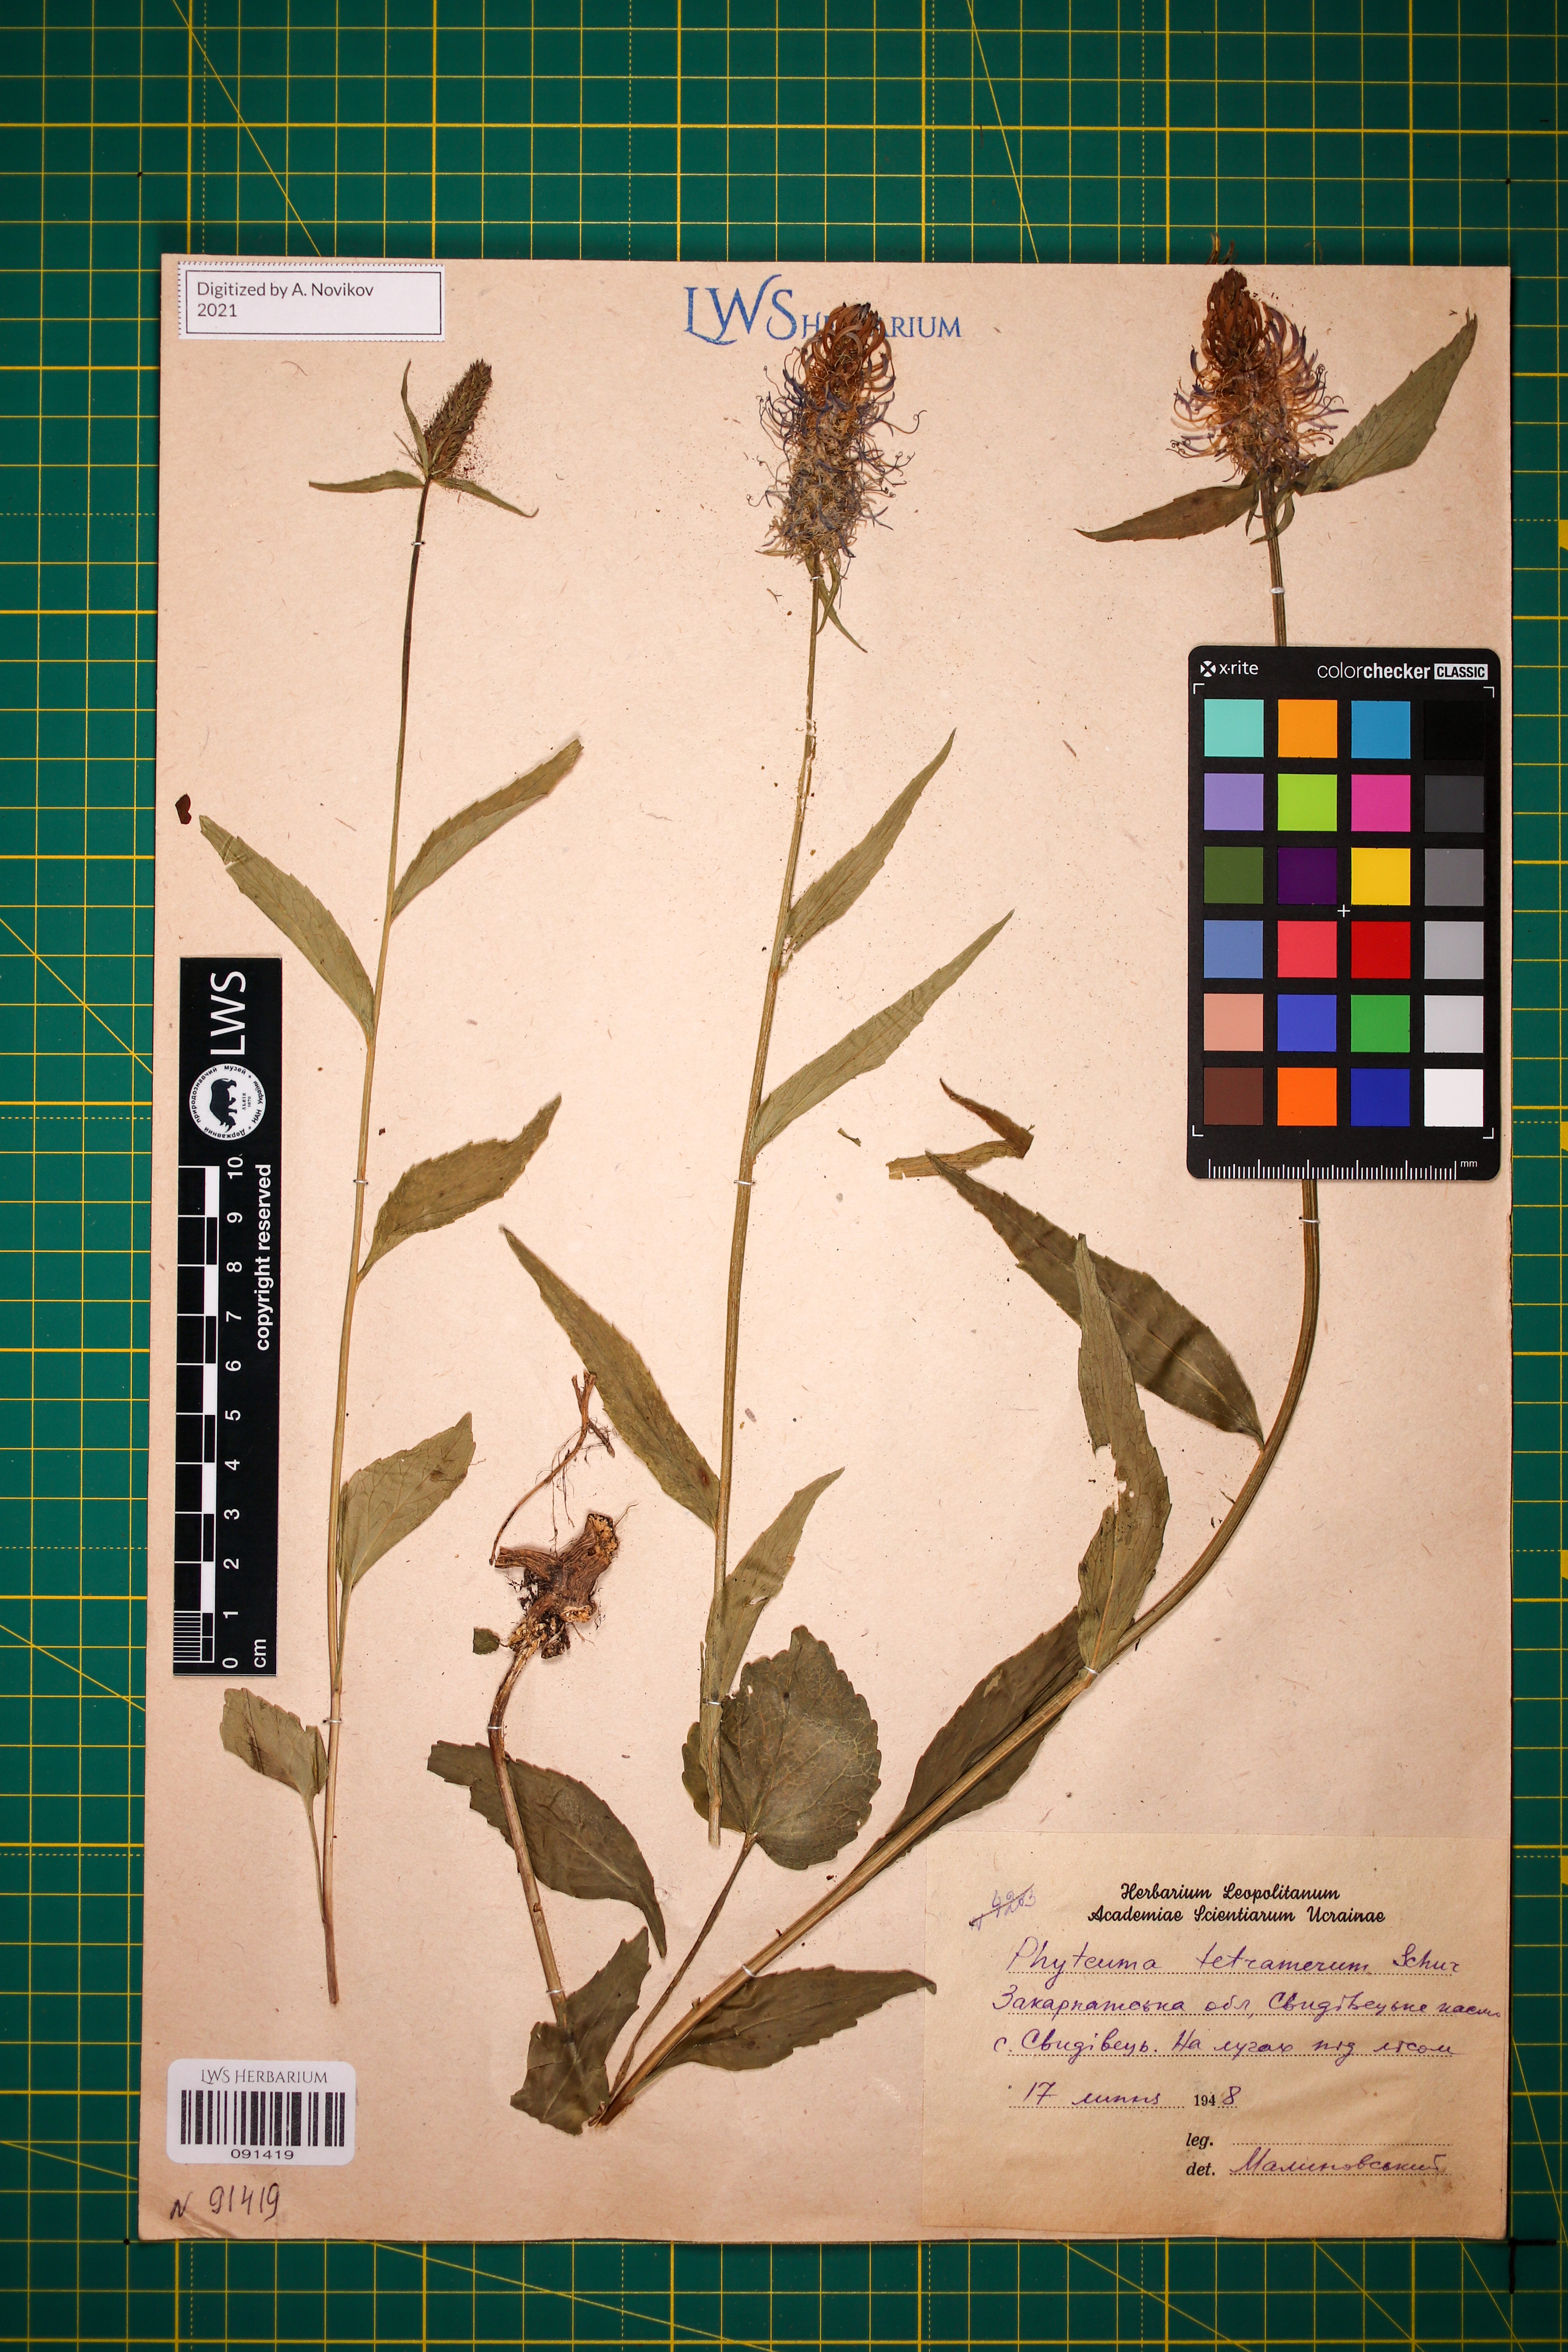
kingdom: Plantae
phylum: Tracheophyta
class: Magnoliopsida
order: Asterales
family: Campanulaceae
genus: Phyteuma
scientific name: Phyteuma tetramerum
